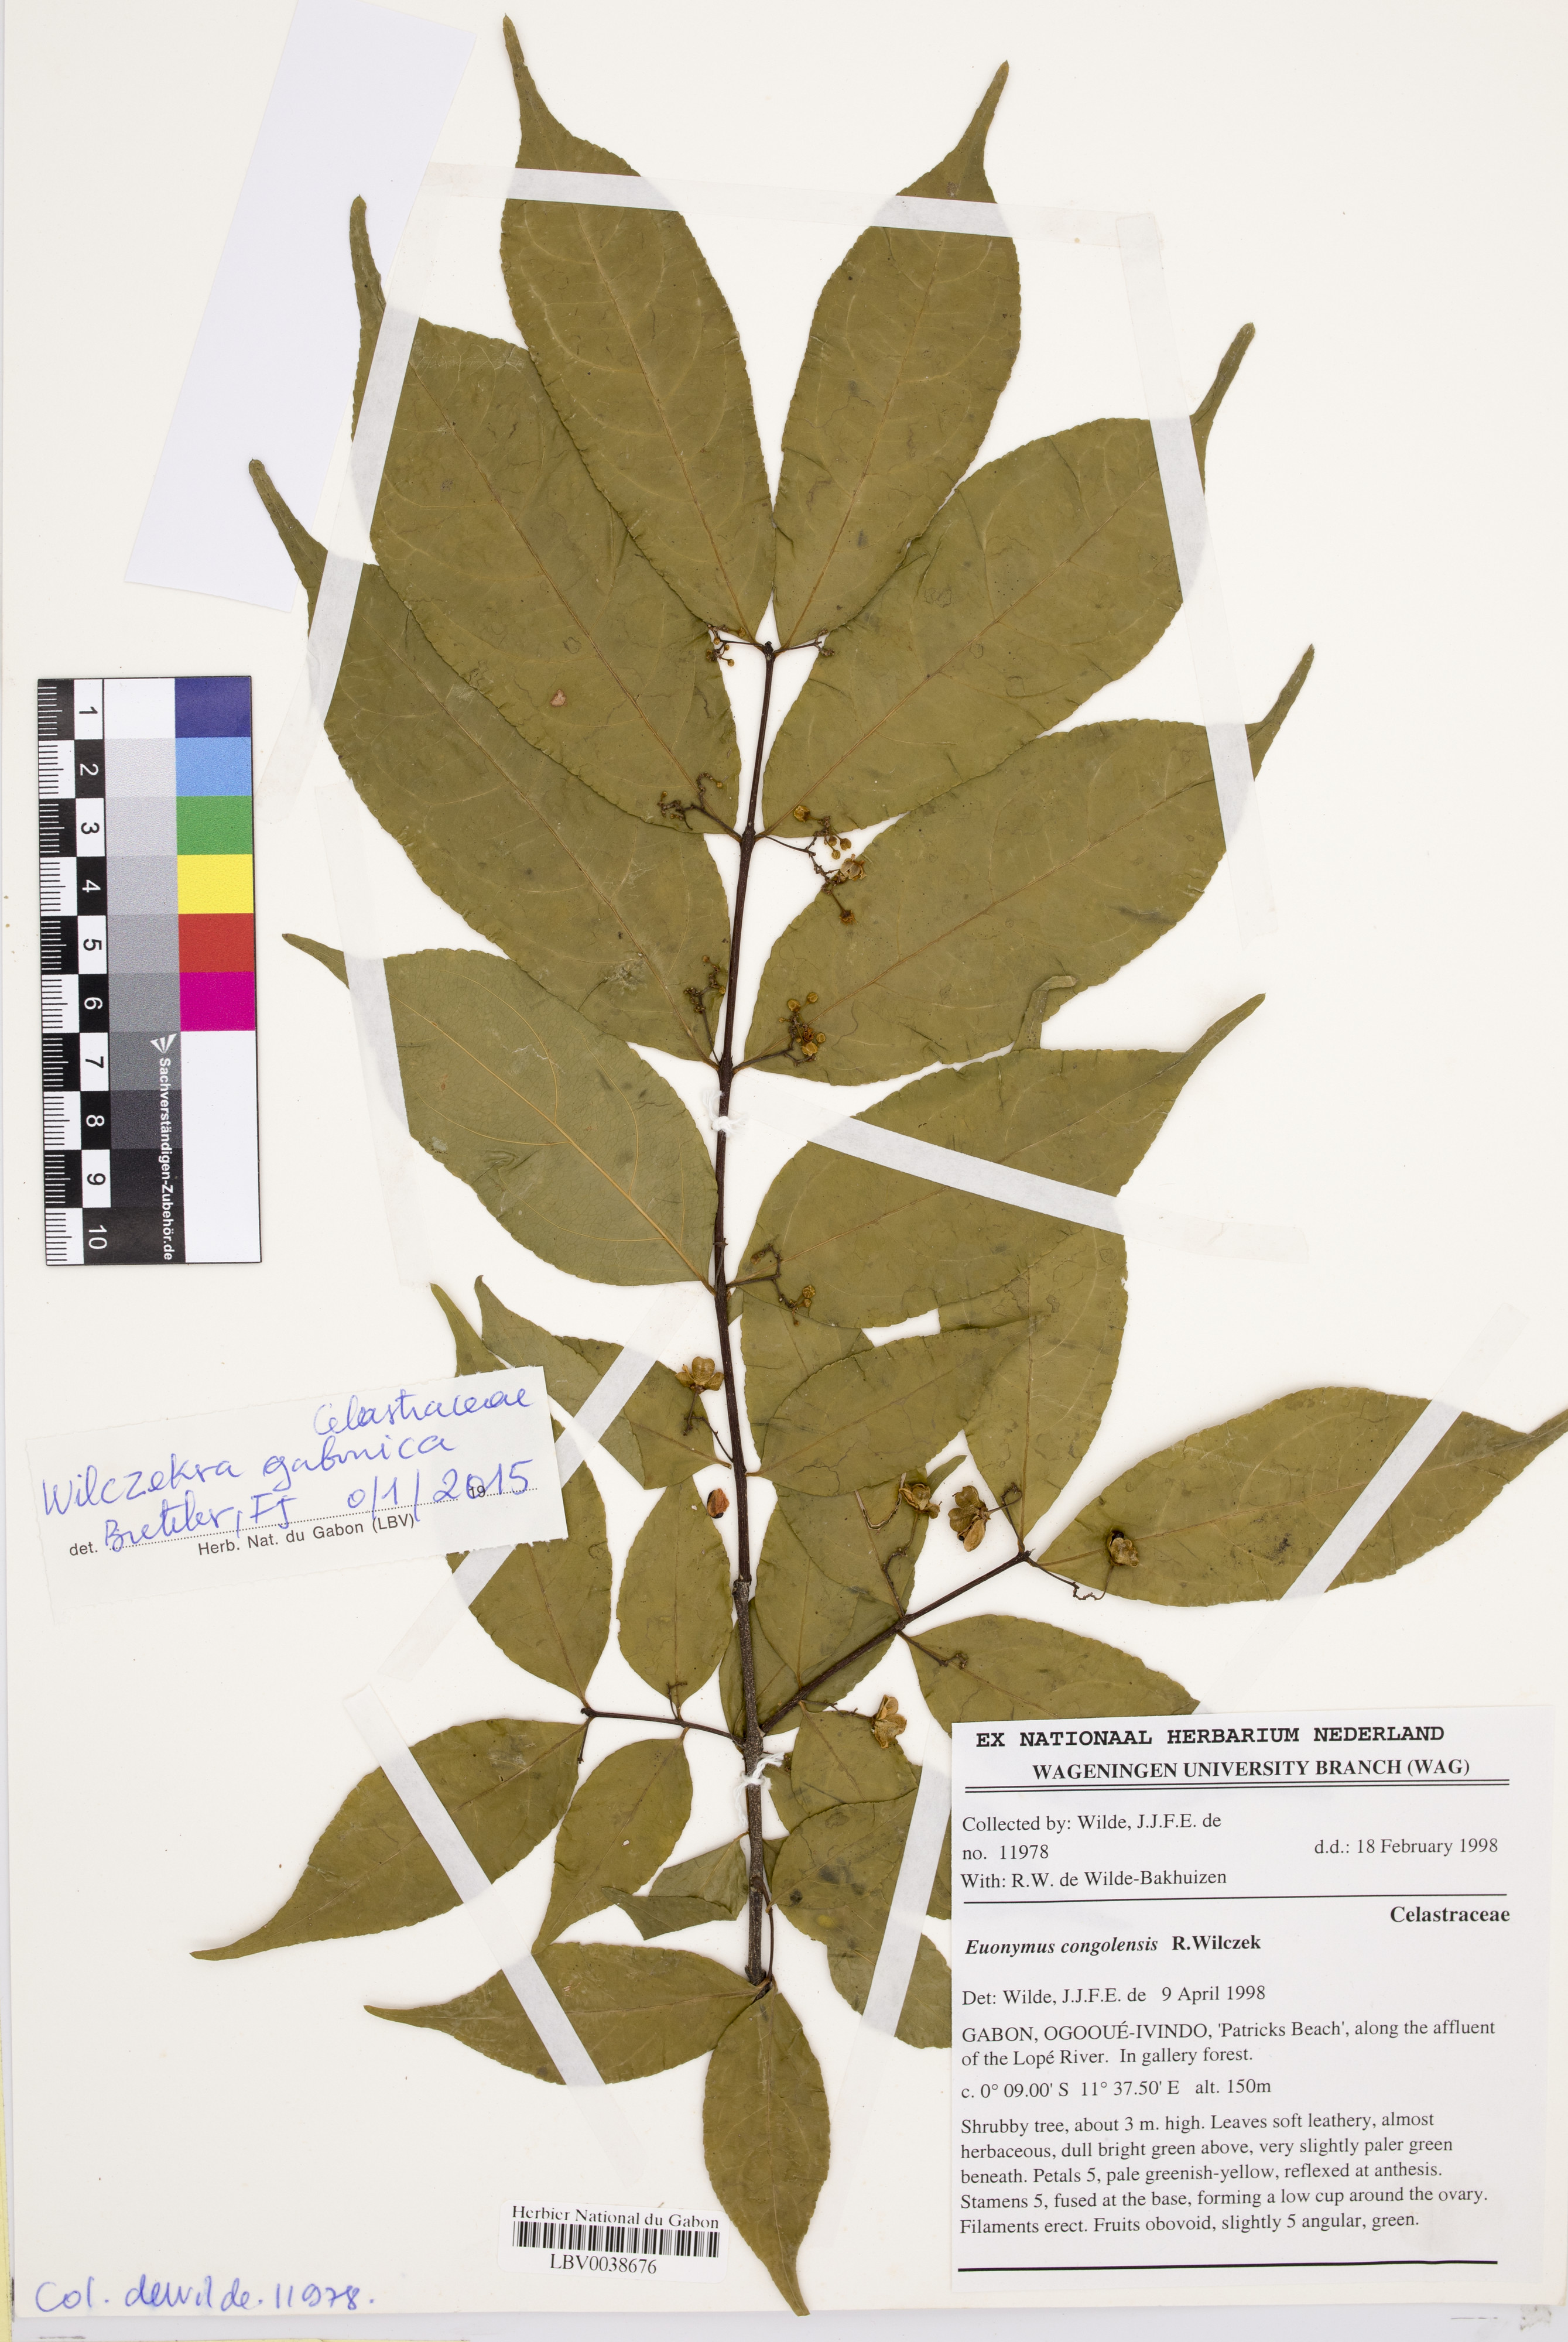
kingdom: Plantae
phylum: Tracheophyta
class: Magnoliopsida
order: Celastrales
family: Celastraceae
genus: Wilczekra
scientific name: Wilczekra gabonica
